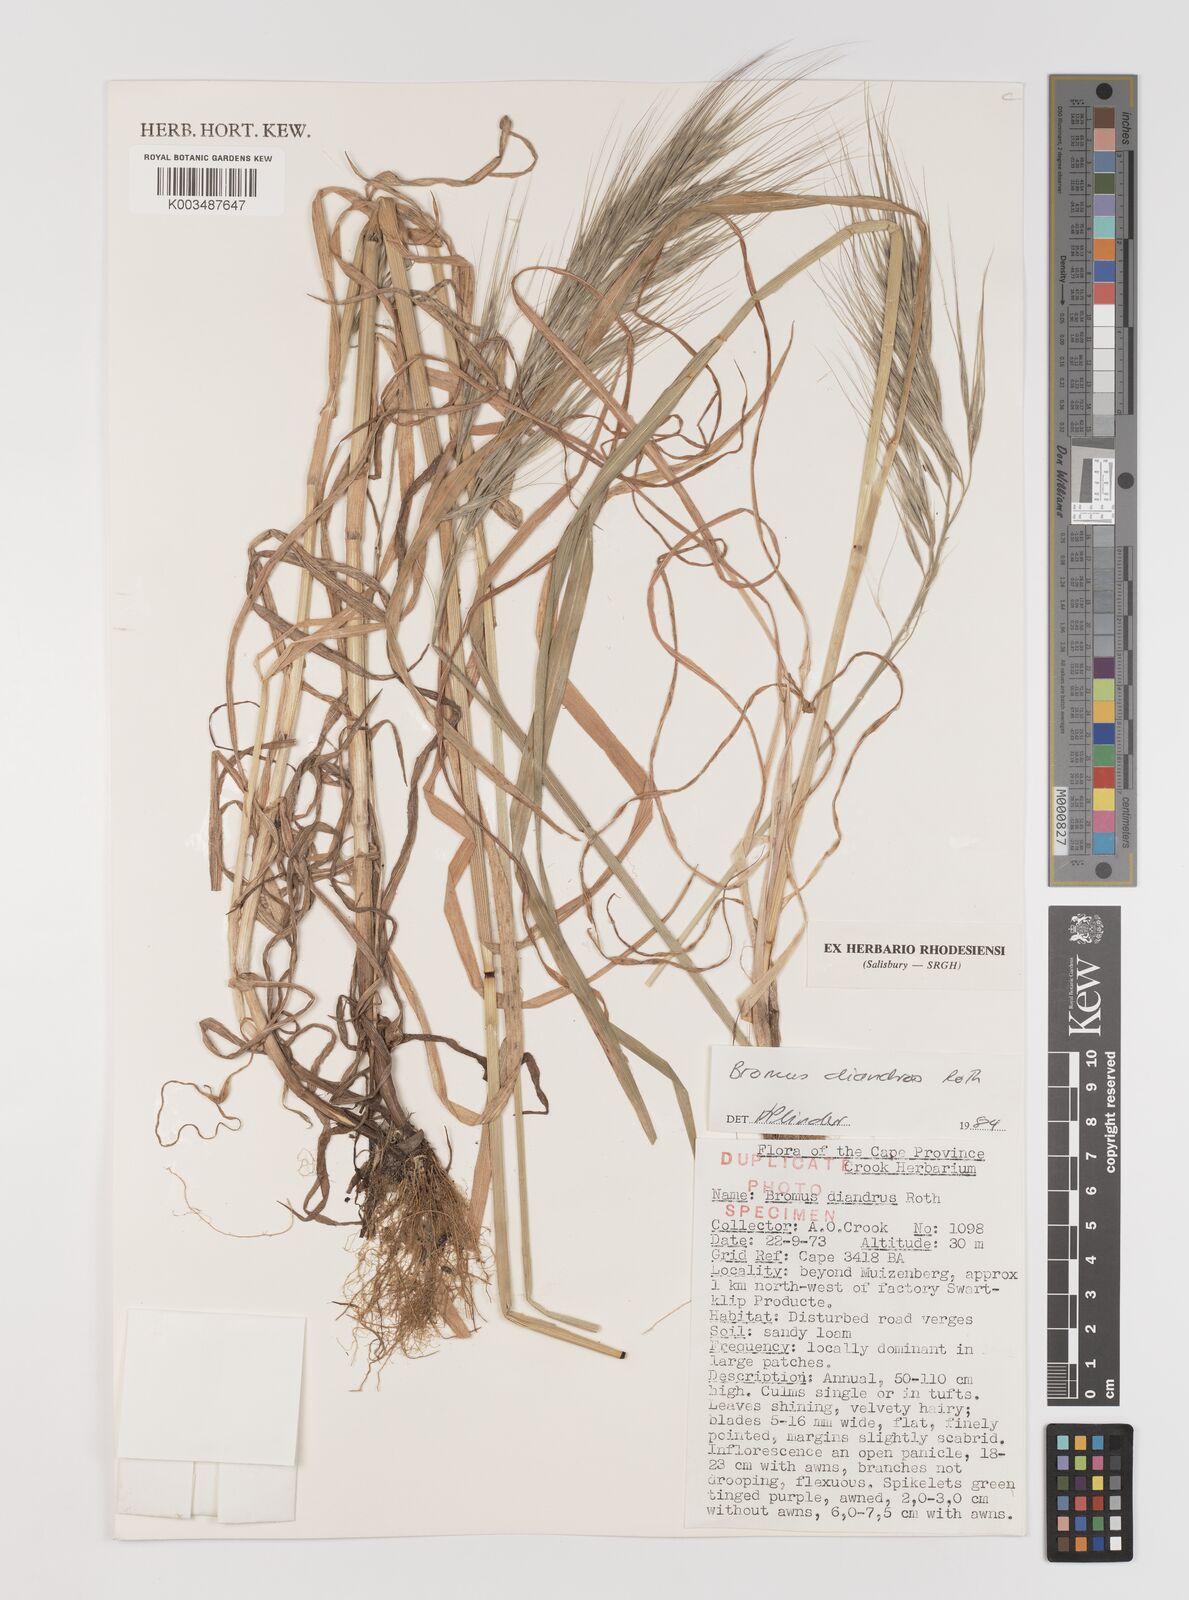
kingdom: Plantae
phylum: Tracheophyta
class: Liliopsida
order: Poales
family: Poaceae
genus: Bromus
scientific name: Bromus diandrus
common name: Ripgut brome
